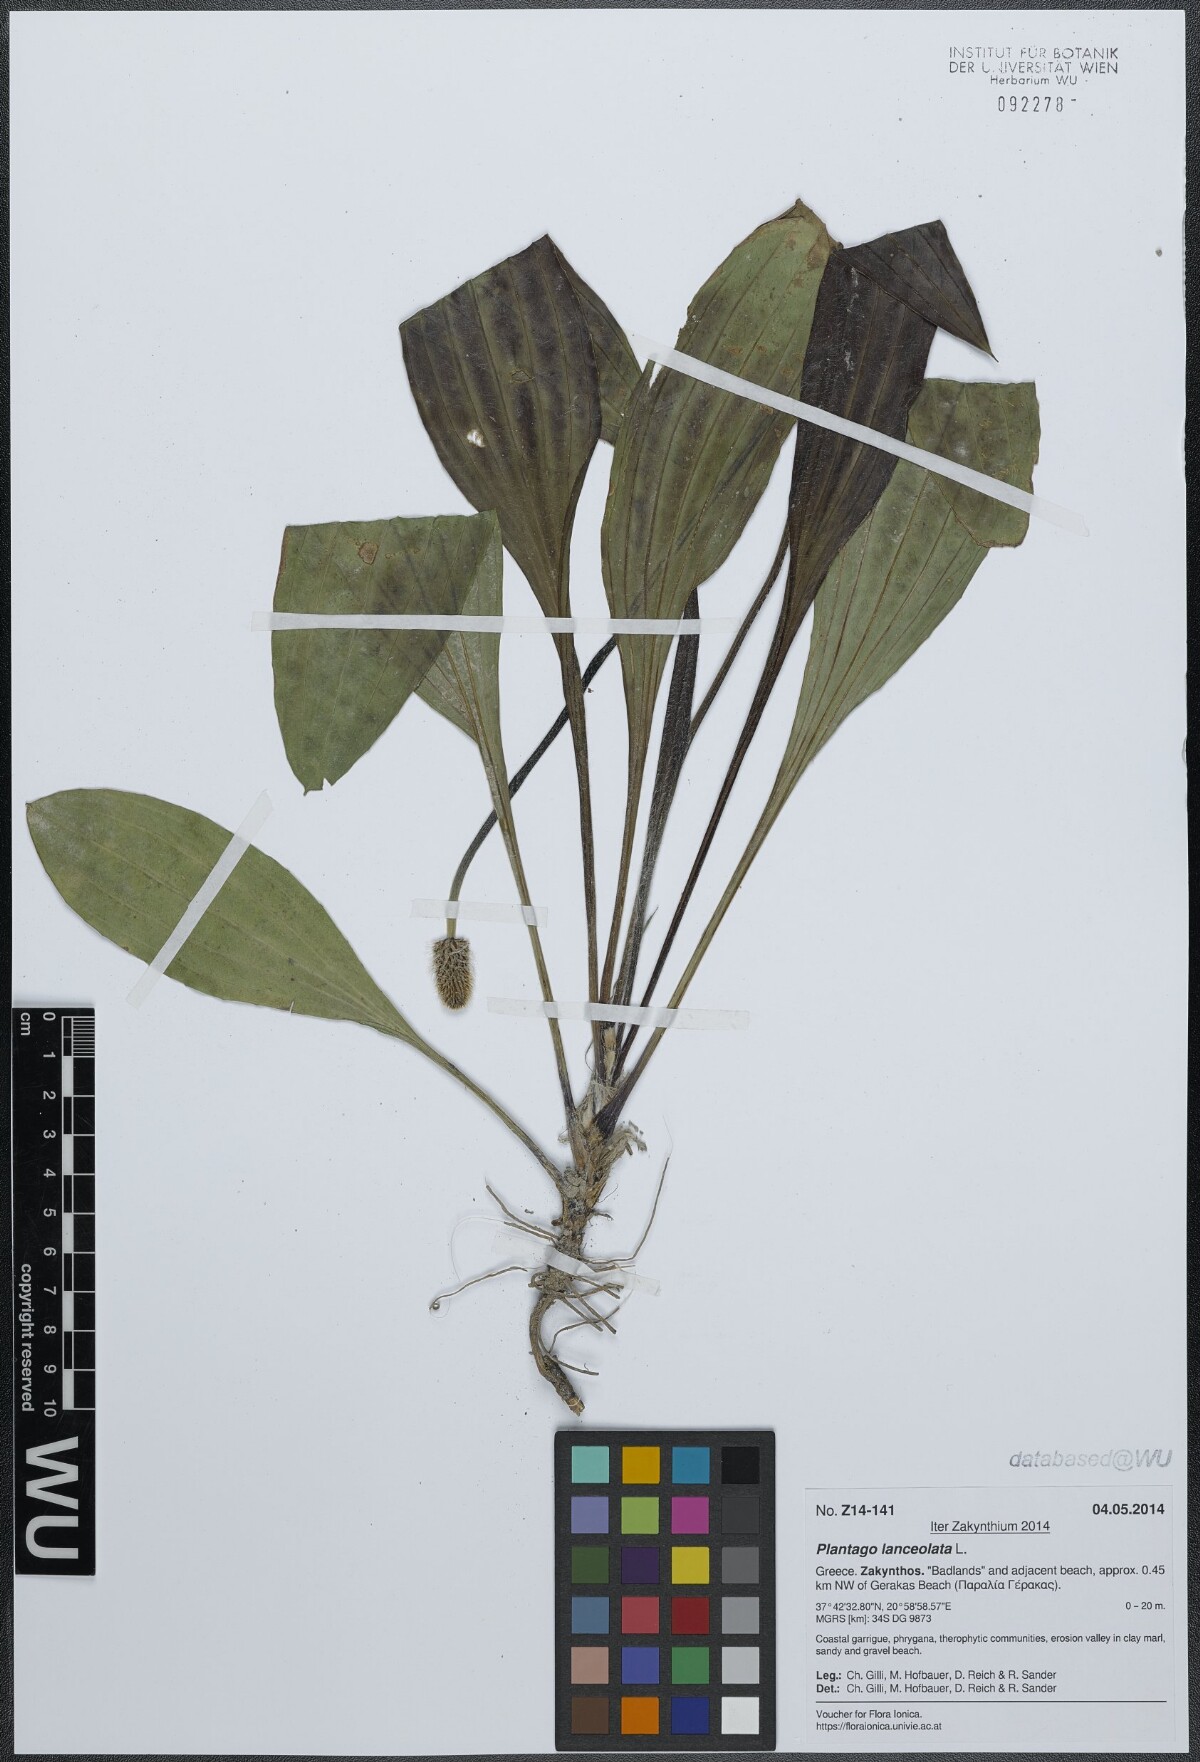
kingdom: Plantae
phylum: Tracheophyta
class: Magnoliopsida
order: Lamiales
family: Plantaginaceae
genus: Plantago
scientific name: Plantago lanceolata
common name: Ribwort plantain
